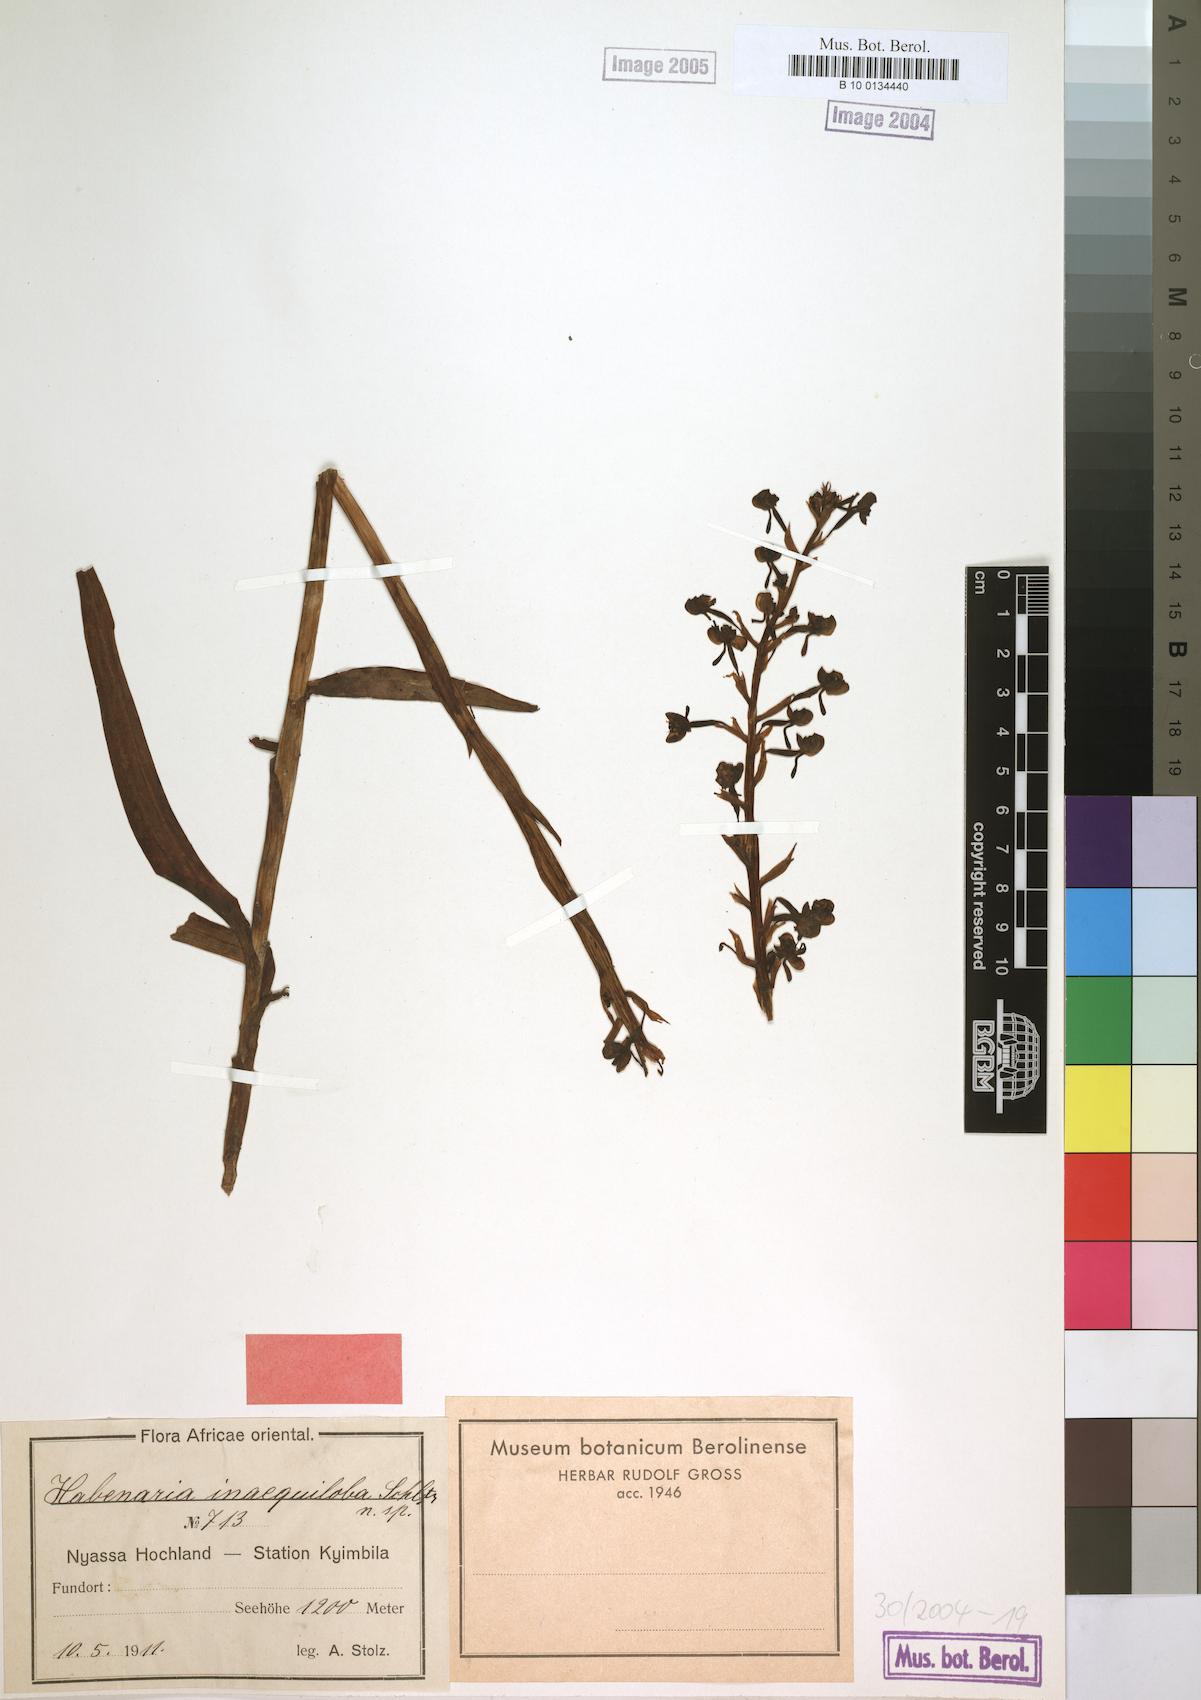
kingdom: Plantae
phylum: Tracheophyta
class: Liliopsida
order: Asparagales
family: Orchidaceae
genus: Habenaria
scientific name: Habenaria inaequiloba
